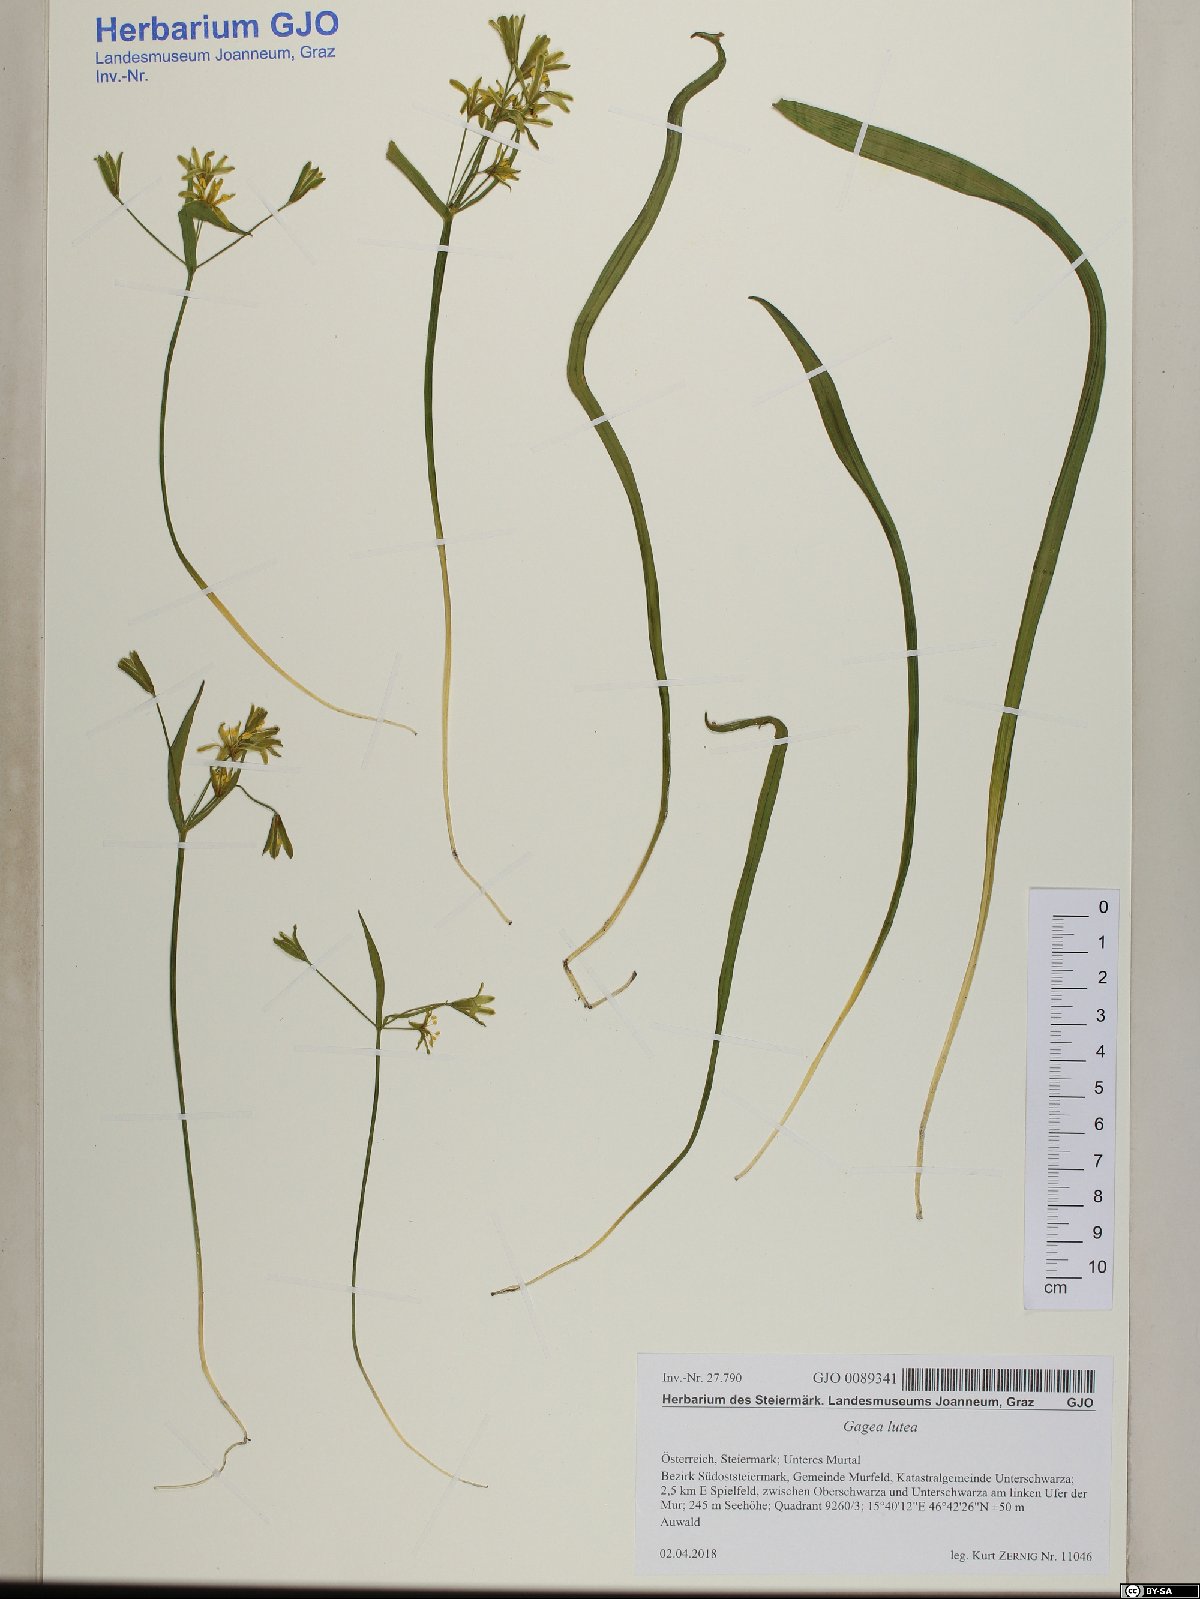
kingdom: Plantae
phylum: Tracheophyta
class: Liliopsida
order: Liliales
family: Liliaceae
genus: Gagea
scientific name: Gagea lutea
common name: Yellow star-of-bethlehem
